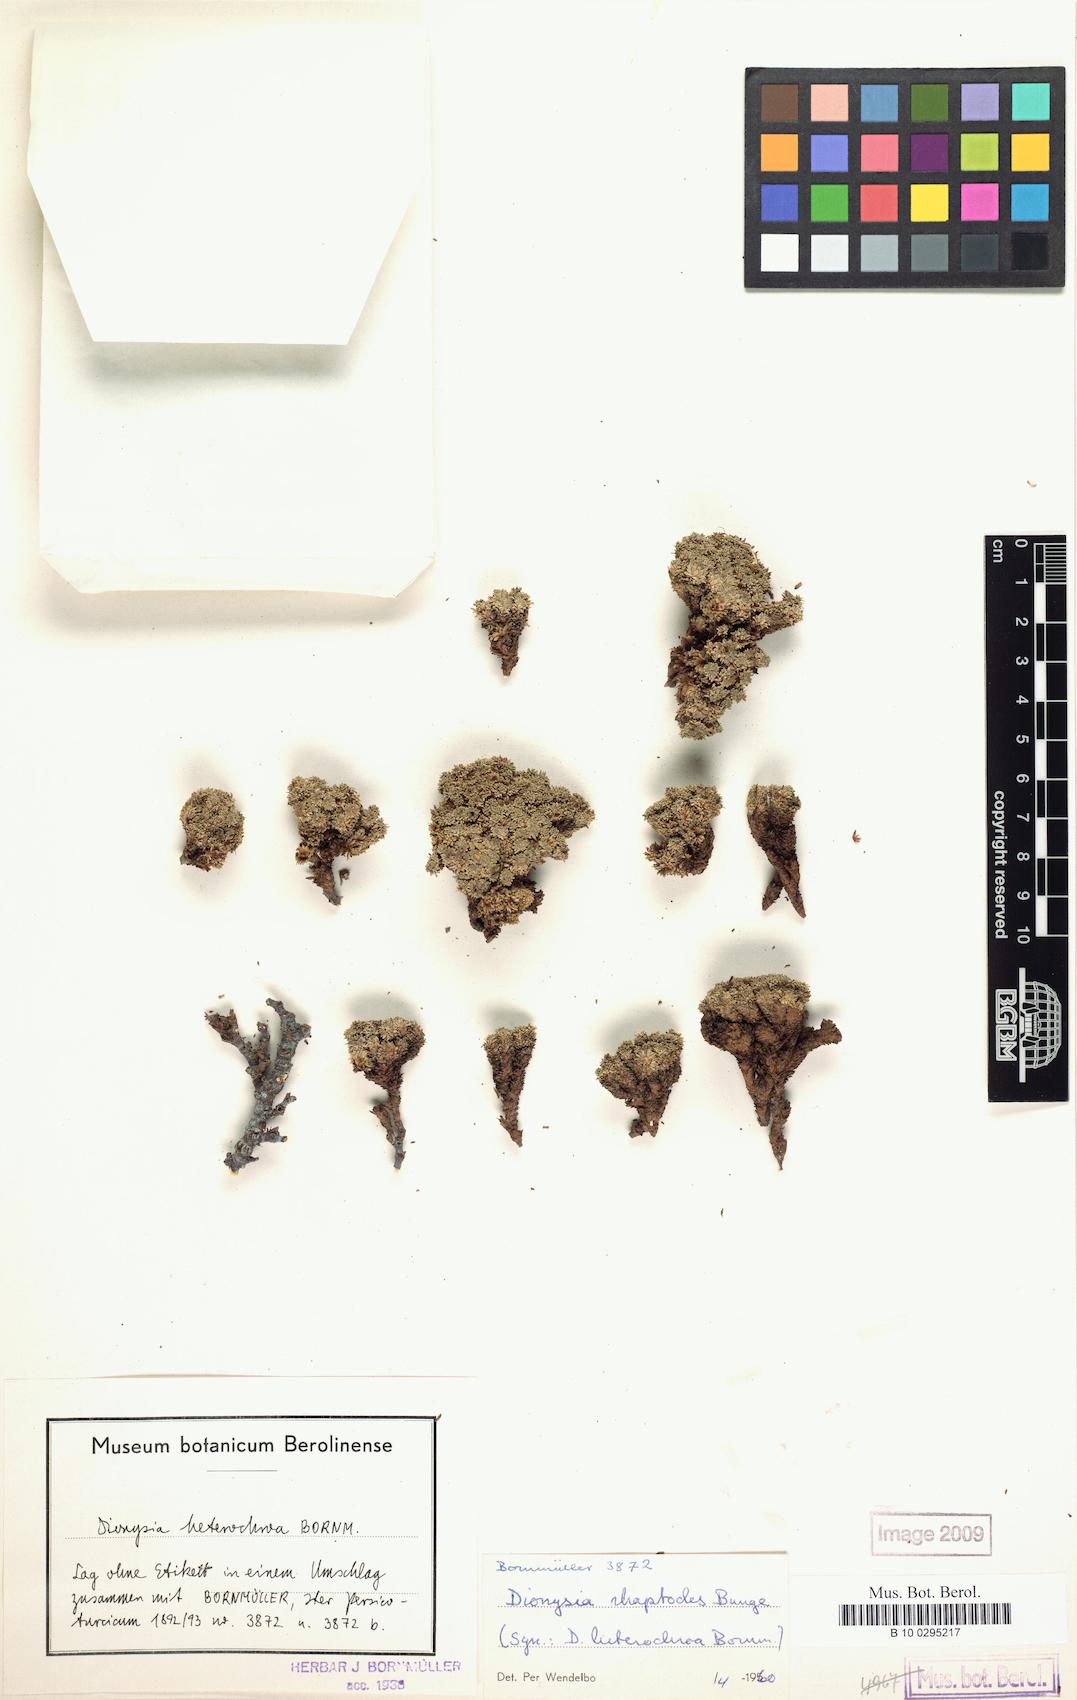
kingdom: Plantae
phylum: Tracheophyta
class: Magnoliopsida
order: Ericales
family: Primulaceae
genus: Dionysia
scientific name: Dionysia rhaptodes
